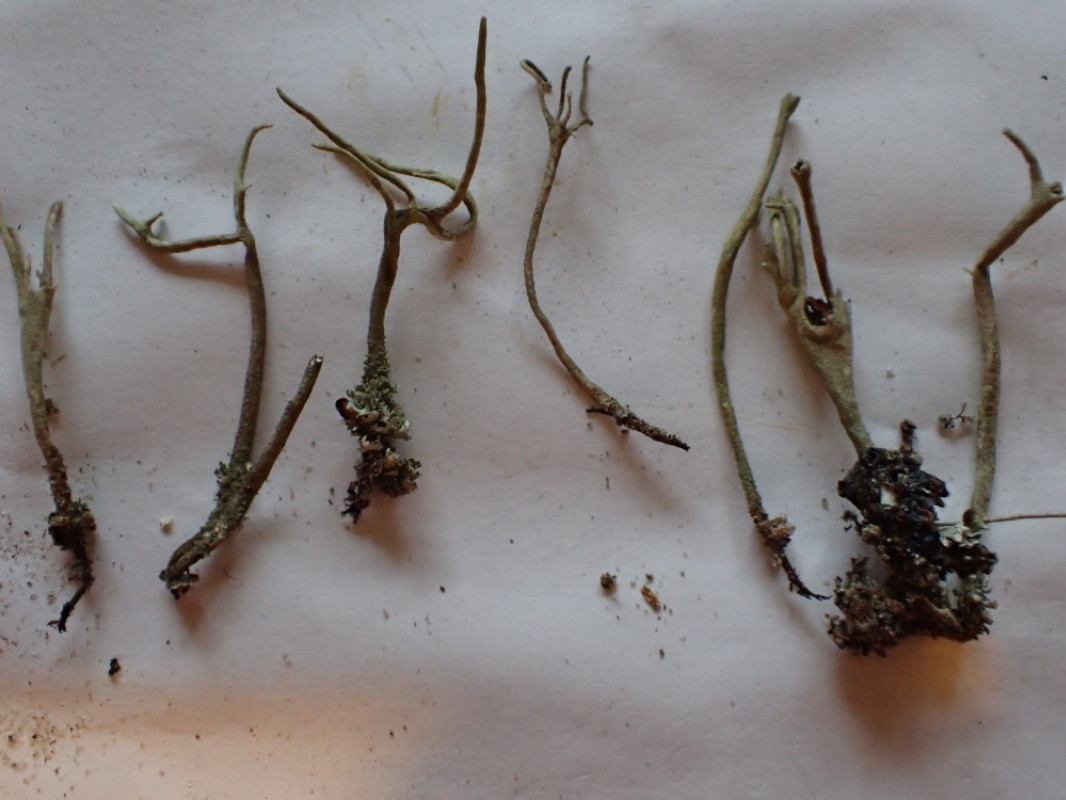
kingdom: Fungi
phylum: Ascomycota
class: Lecanoromycetes
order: Lecanorales
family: Cladoniaceae
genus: Cladonia
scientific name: Cladonia subulata
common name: spids bægerlav
